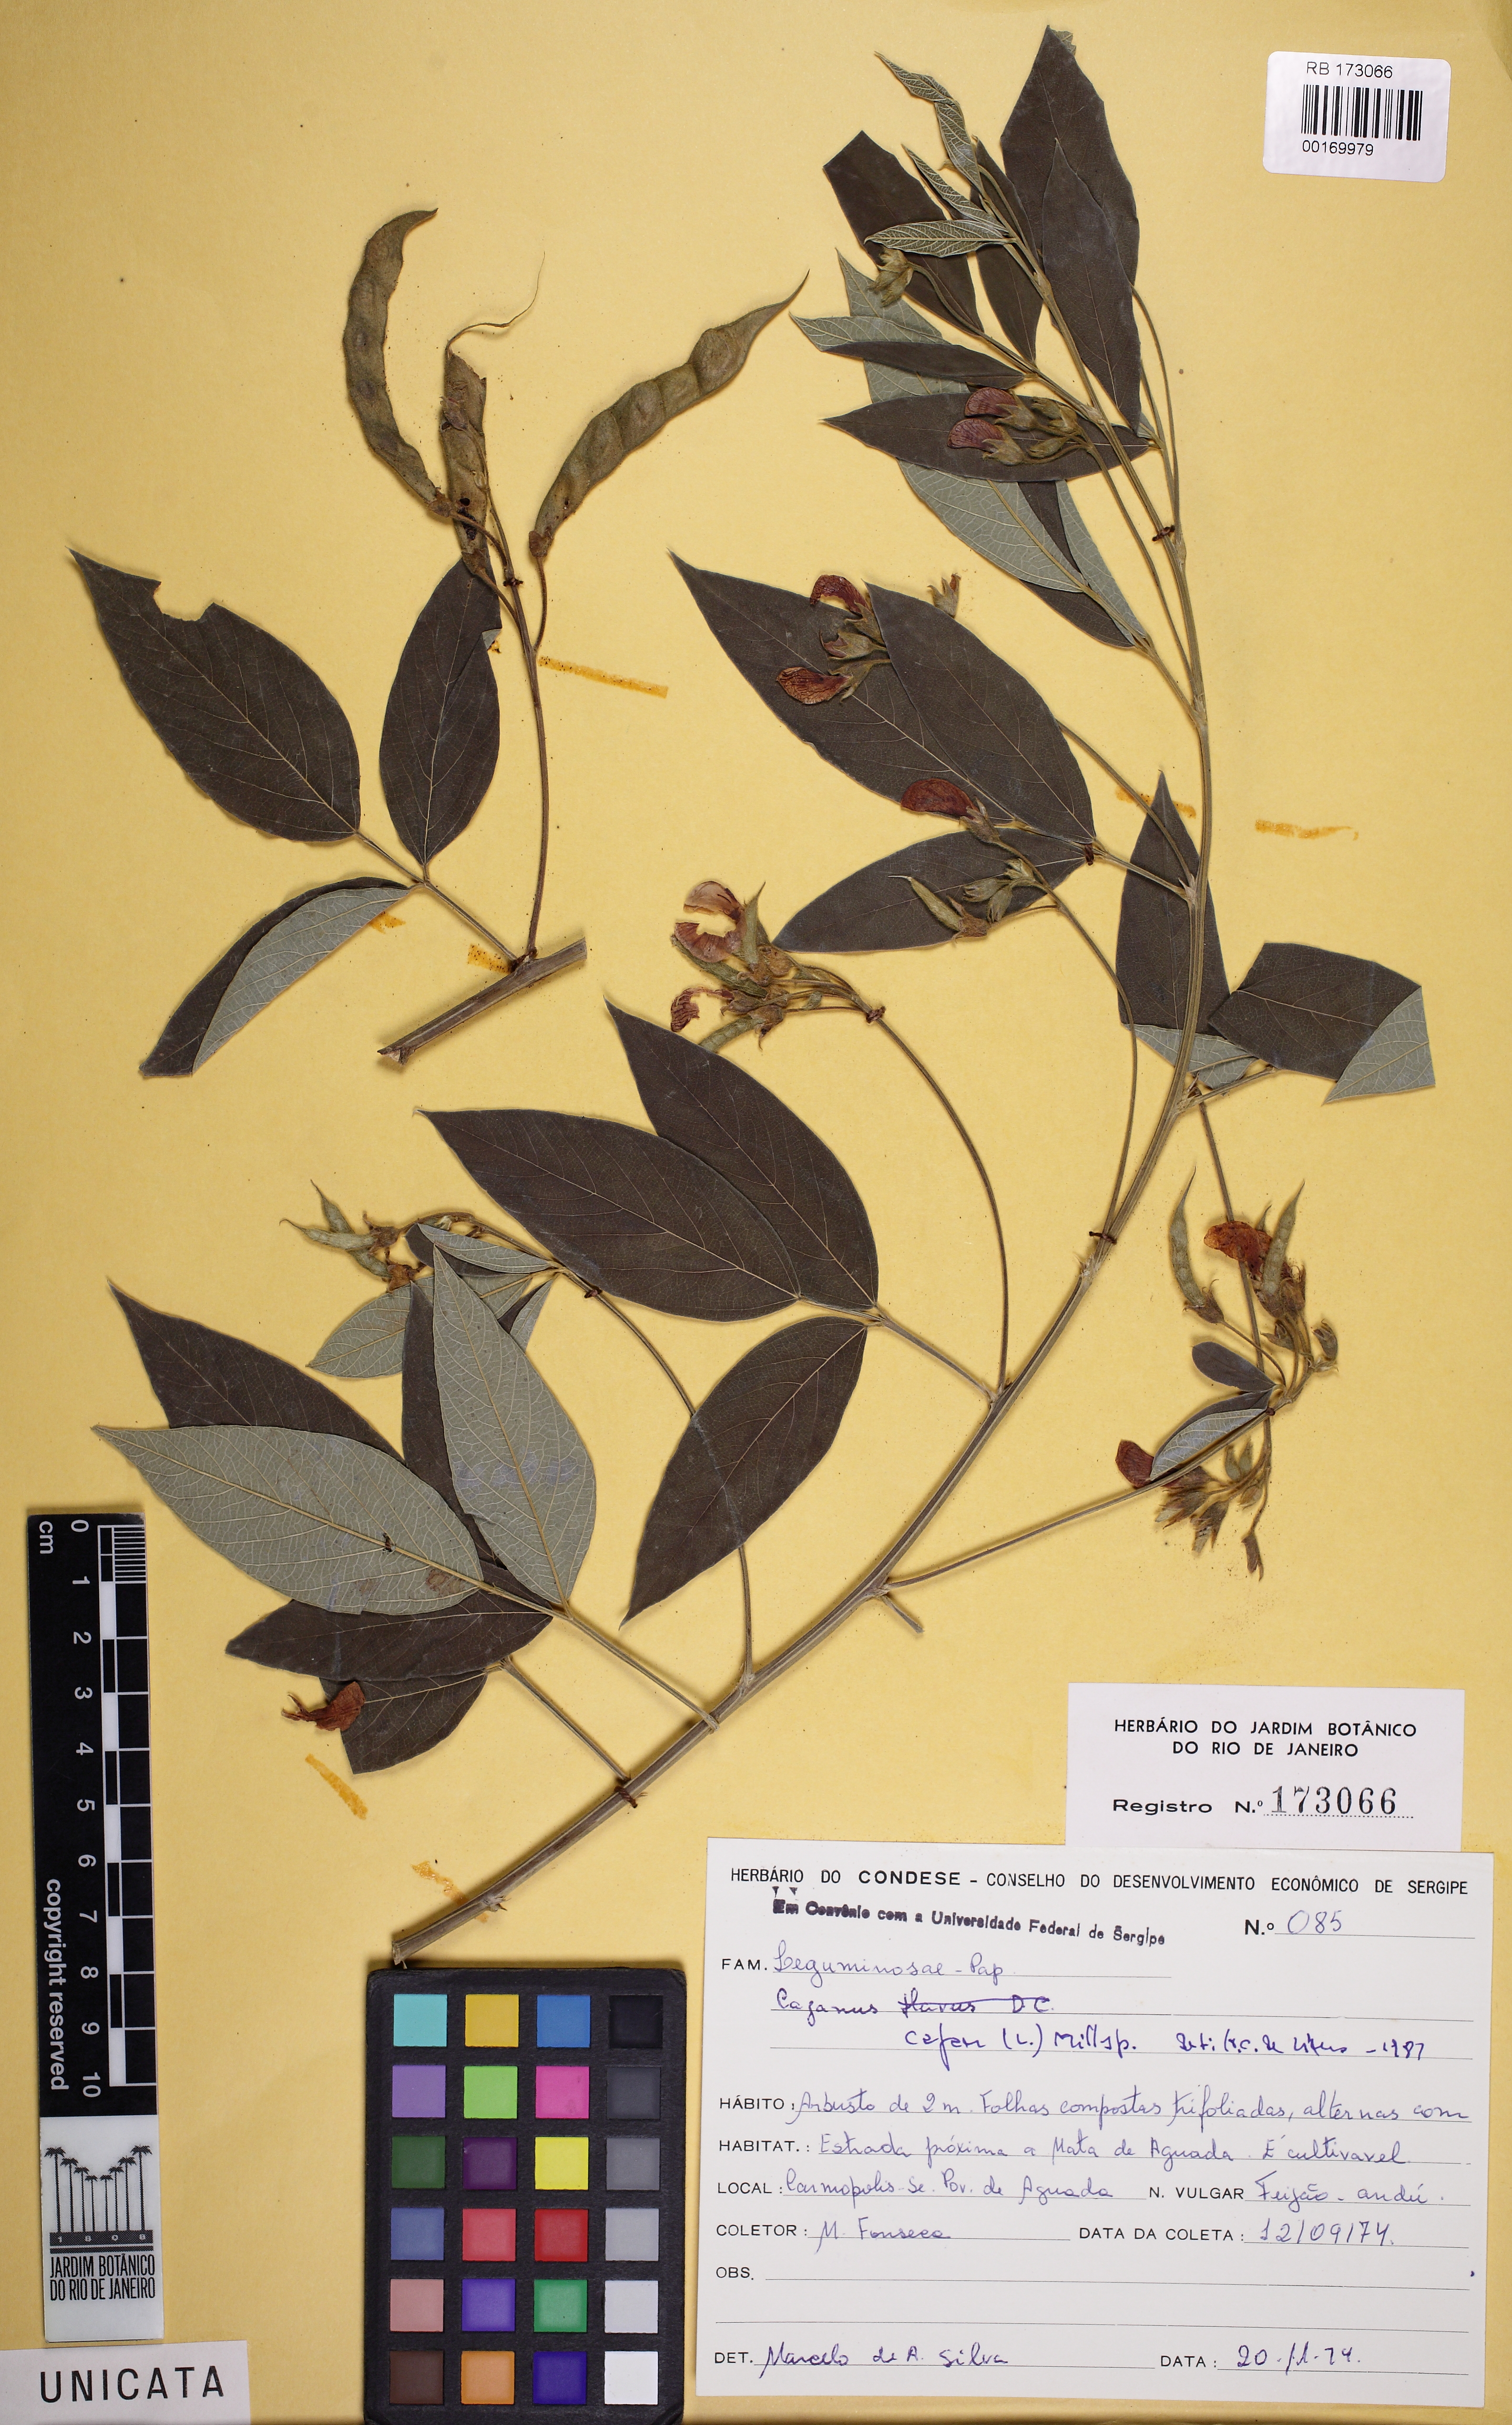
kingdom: Plantae
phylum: Tracheophyta
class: Magnoliopsida
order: Fabales
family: Fabaceae
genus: Cajanus
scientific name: Cajanus cajan
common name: Pigeonpea
